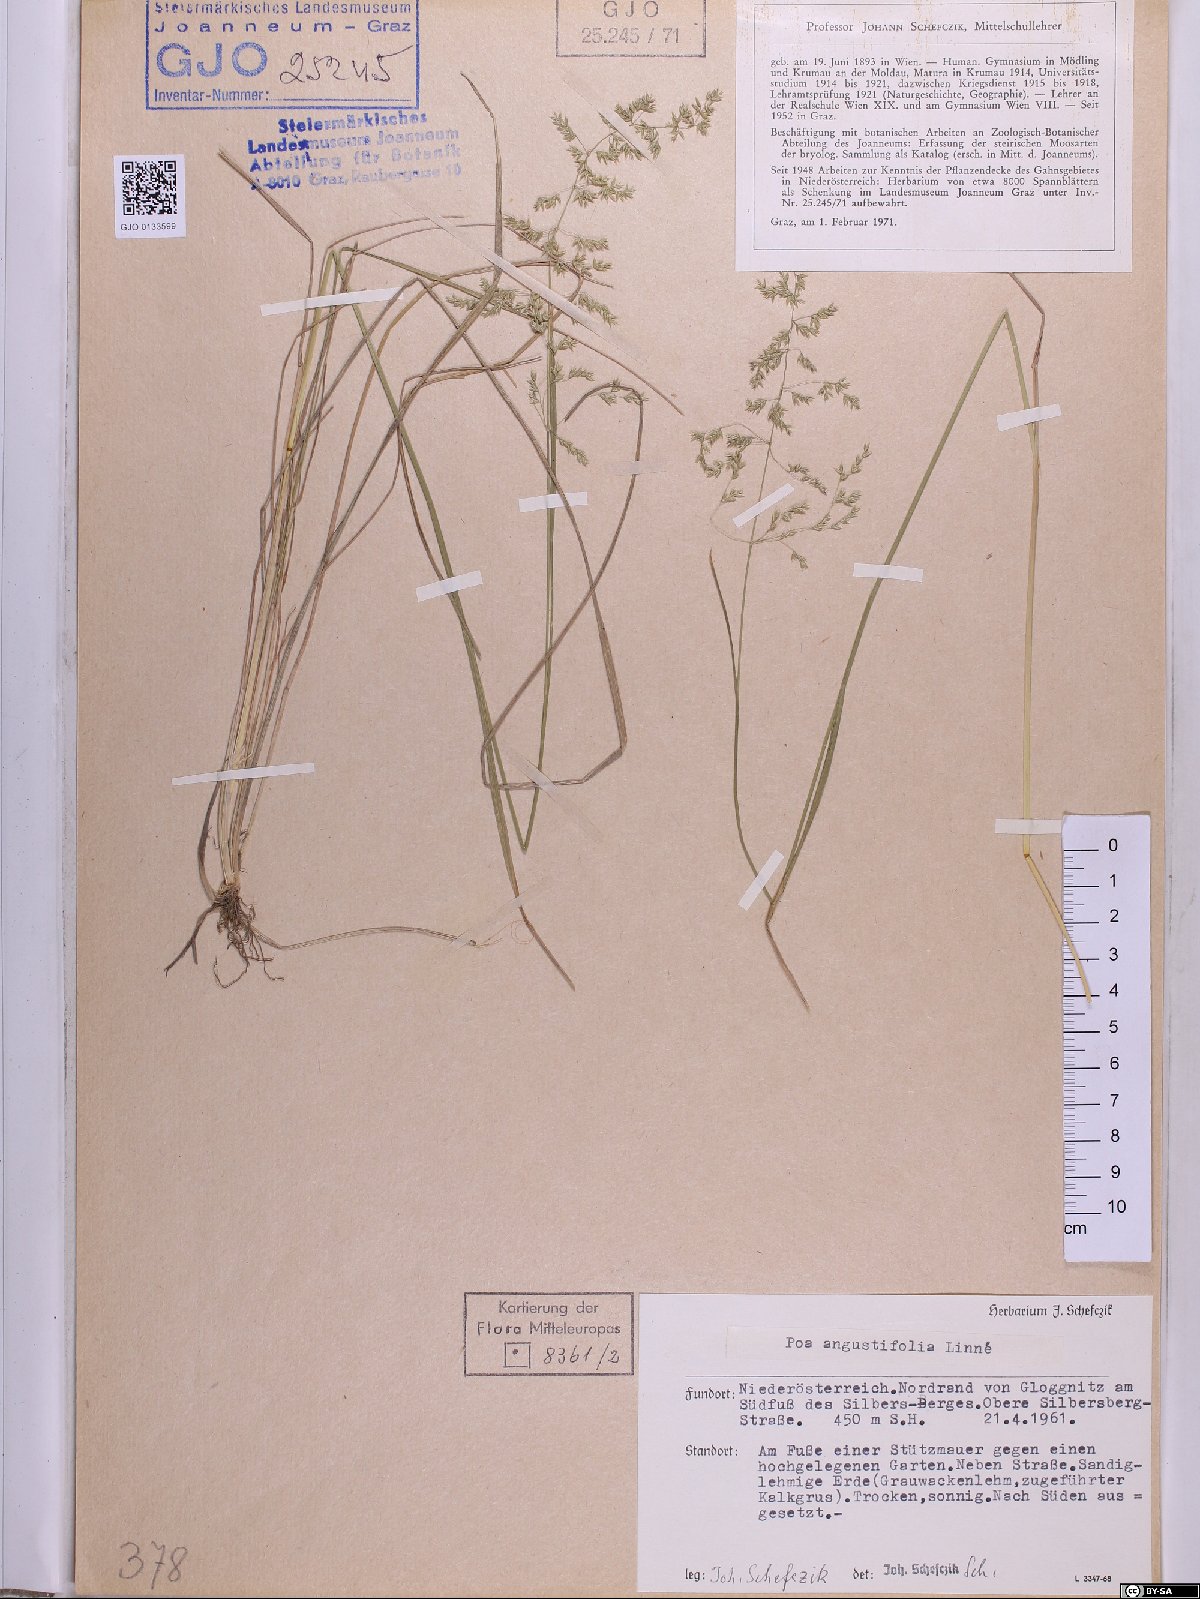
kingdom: Plantae
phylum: Tracheophyta
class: Liliopsida
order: Poales
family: Poaceae
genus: Poa
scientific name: Poa angustifolia
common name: Narrow-leaved meadow-grass
